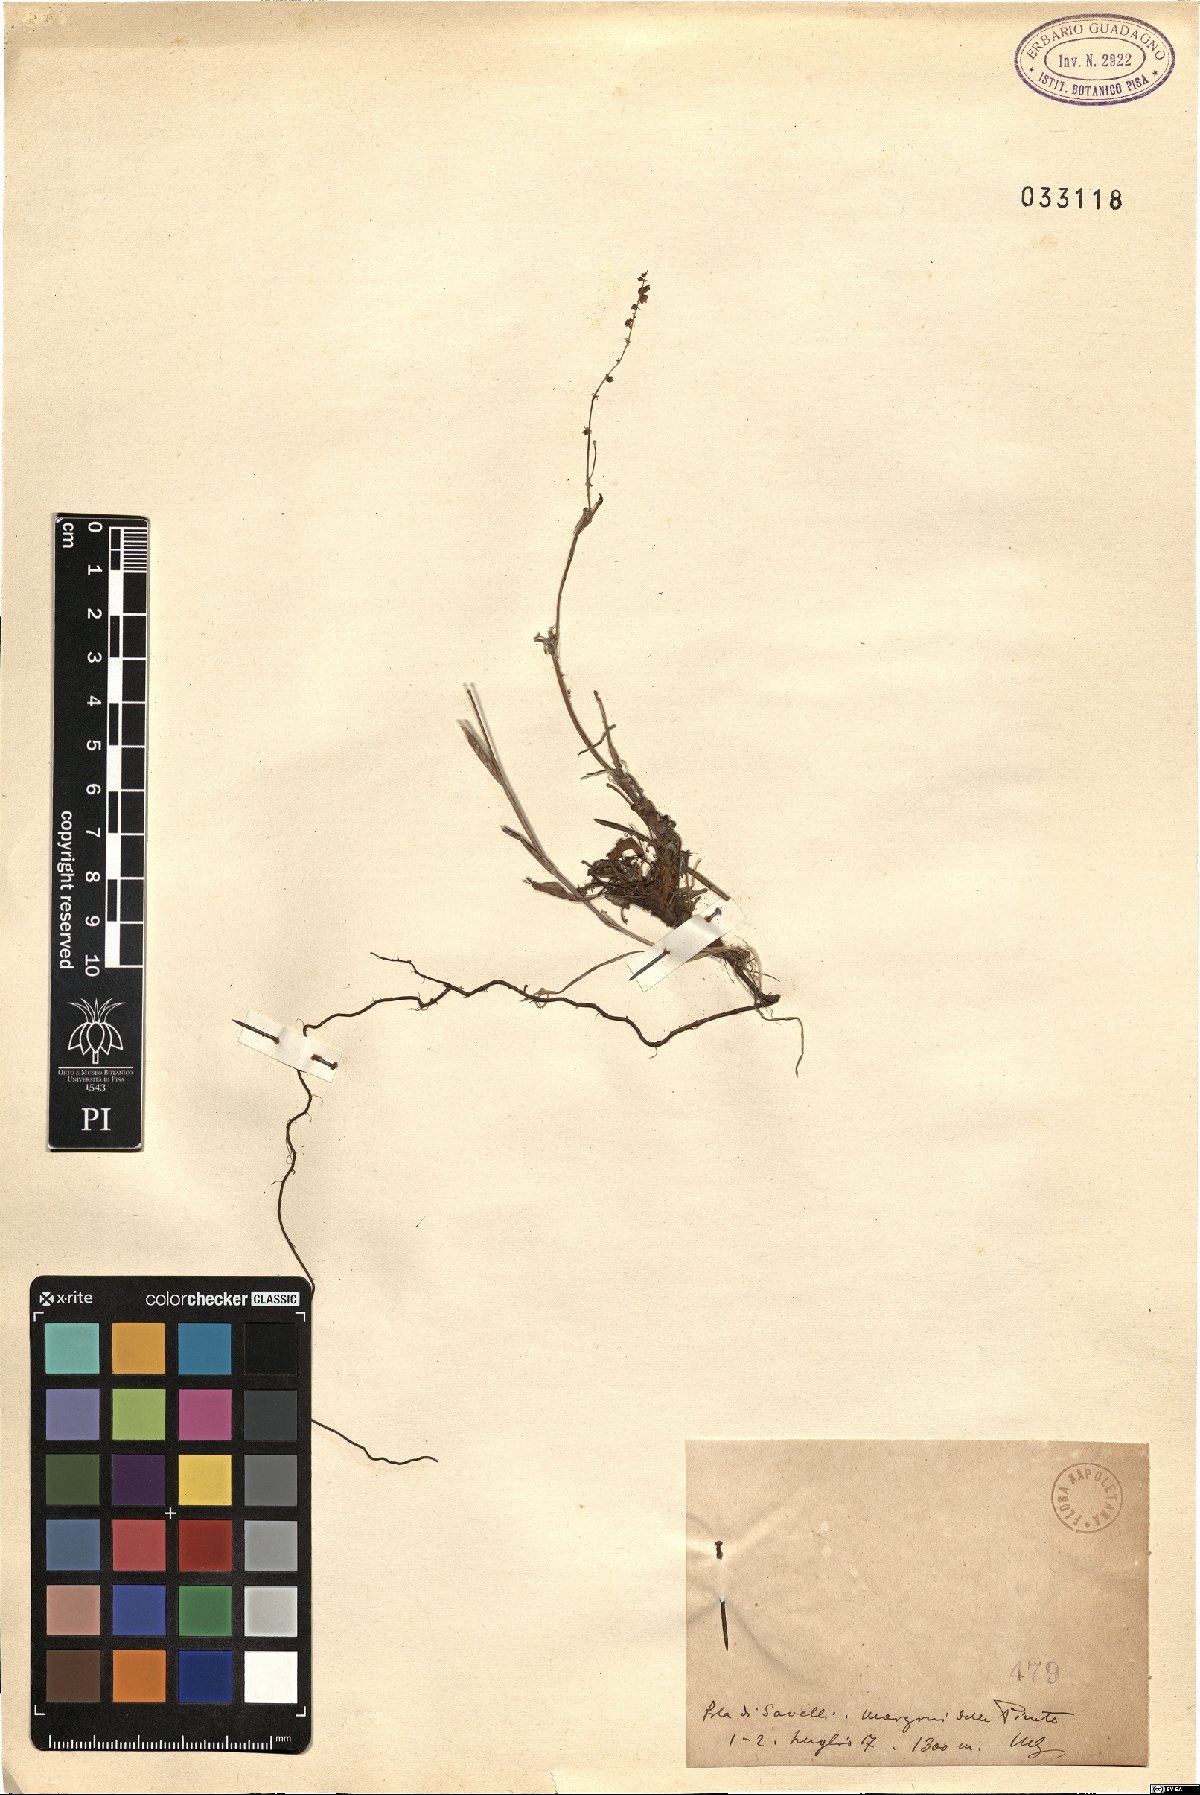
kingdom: Plantae
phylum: Tracheophyta
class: Magnoliopsida
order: Caryophyllales
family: Polygonaceae
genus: Rumex
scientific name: Rumex
